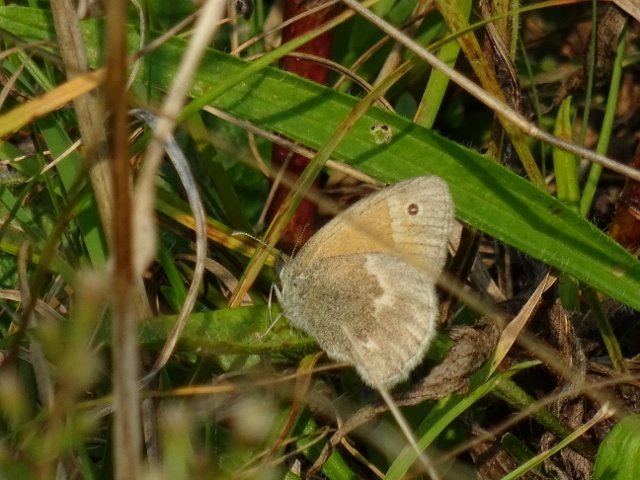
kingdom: Animalia
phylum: Arthropoda
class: Insecta
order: Lepidoptera
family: Nymphalidae
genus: Coenonympha
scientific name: Coenonympha tullia
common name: Large Heath
